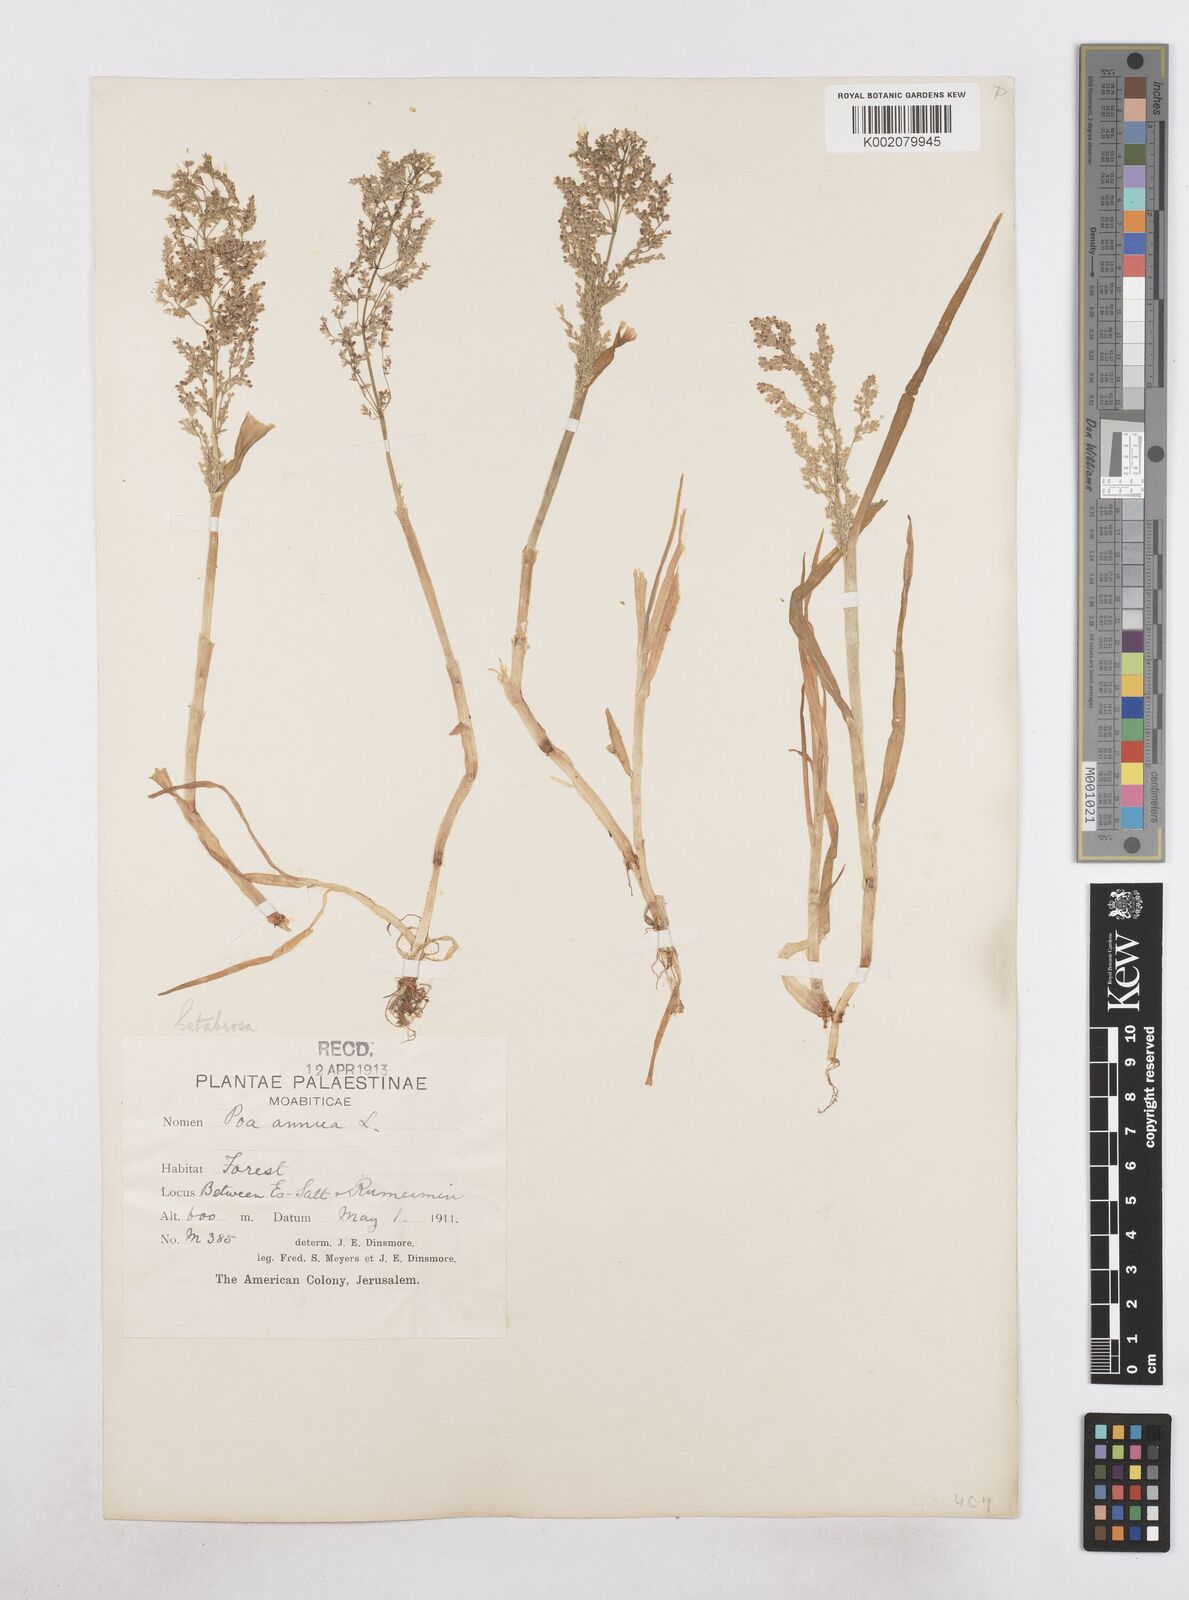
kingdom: Plantae
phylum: Tracheophyta
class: Liliopsida
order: Poales
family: Poaceae
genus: Catabrosa
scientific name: Catabrosa aquatica
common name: Whorl-grass
